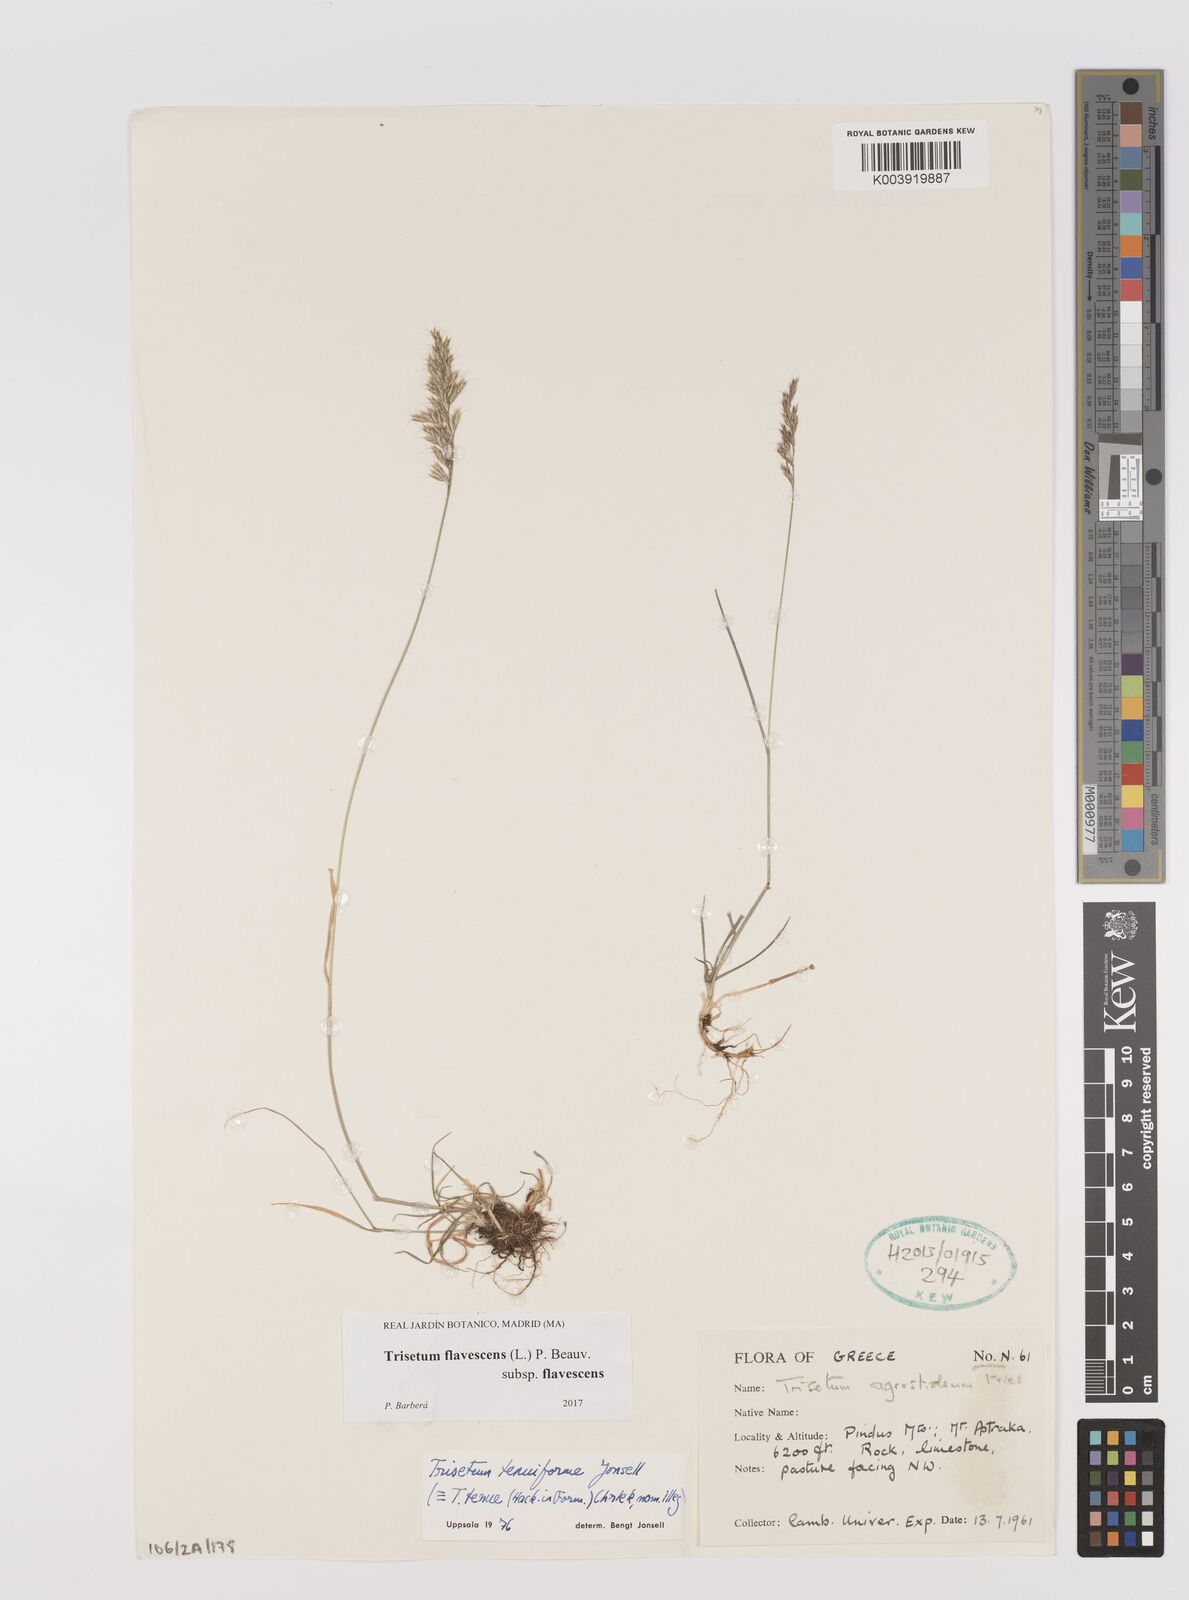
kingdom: Plantae
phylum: Tracheophyta
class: Liliopsida
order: Poales
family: Poaceae
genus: Trisetum
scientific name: Trisetum flavescens
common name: Yellow oat-grass
